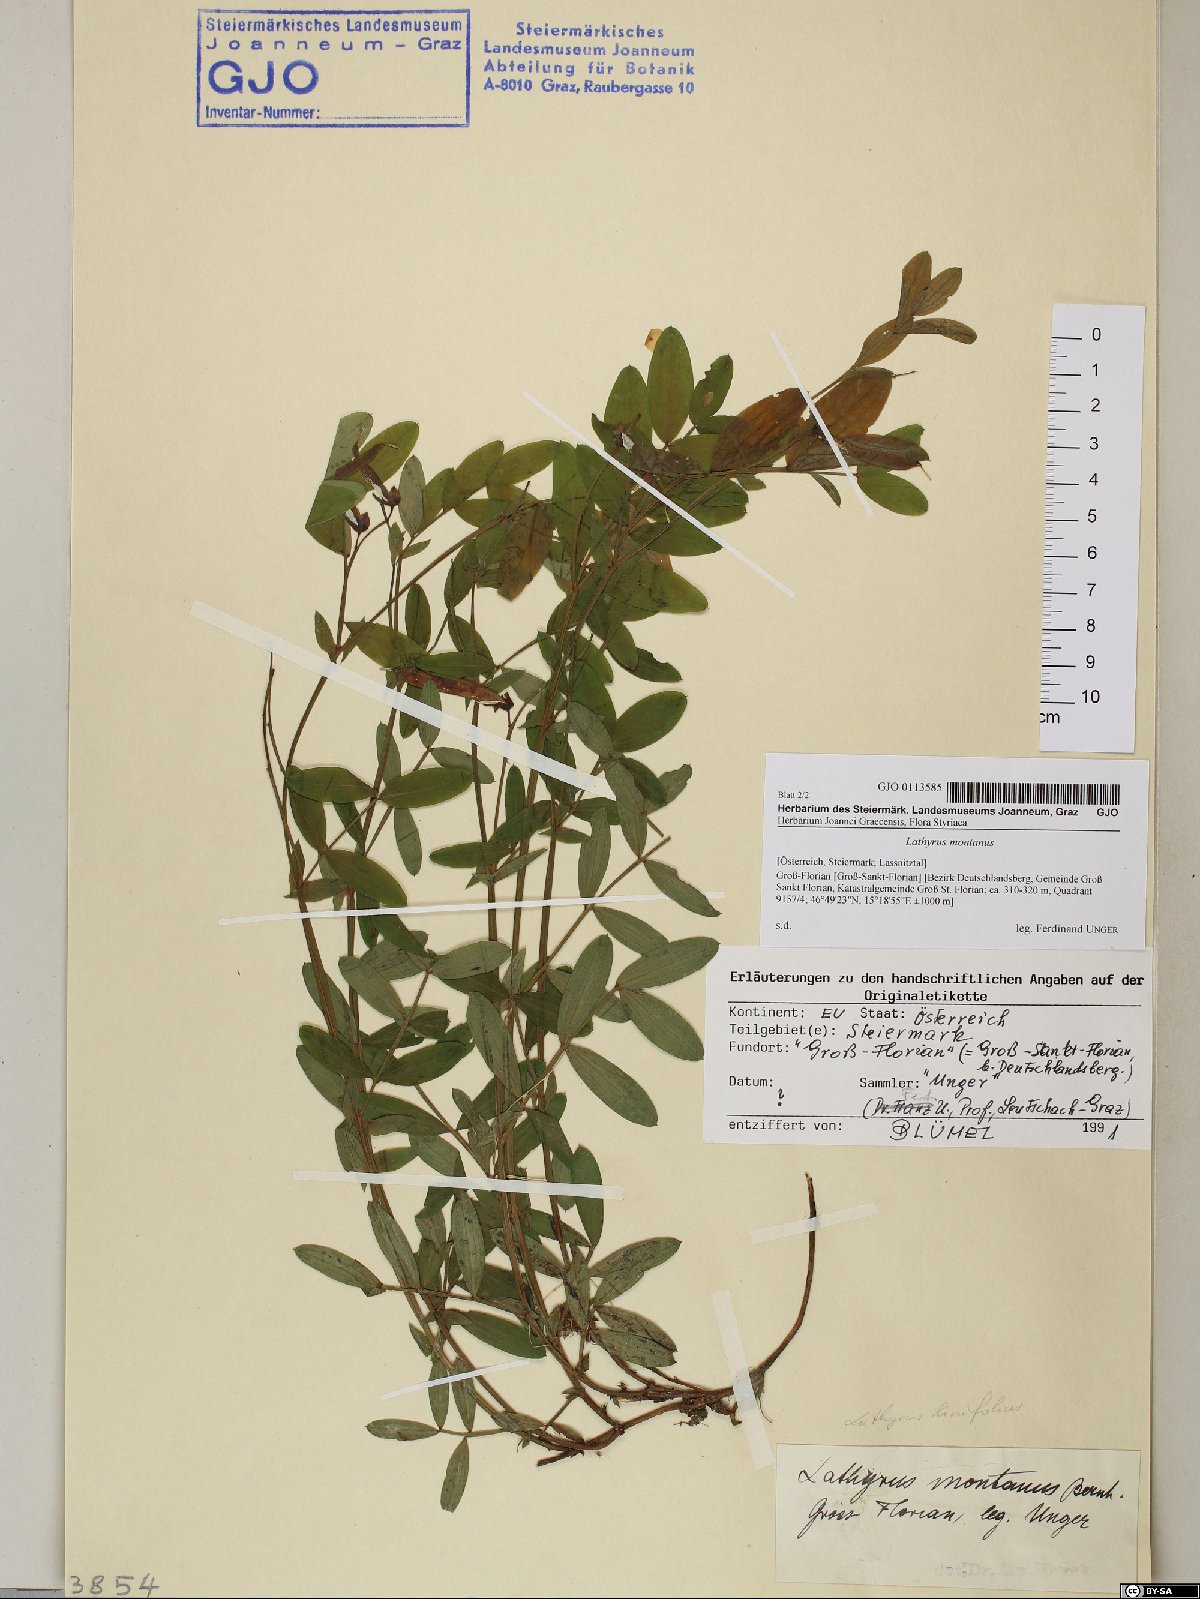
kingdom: Plantae
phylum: Tracheophyta
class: Magnoliopsida
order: Fabales
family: Fabaceae
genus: Lathyrus
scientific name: Lathyrus linifolius
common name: Bitter-vetch
